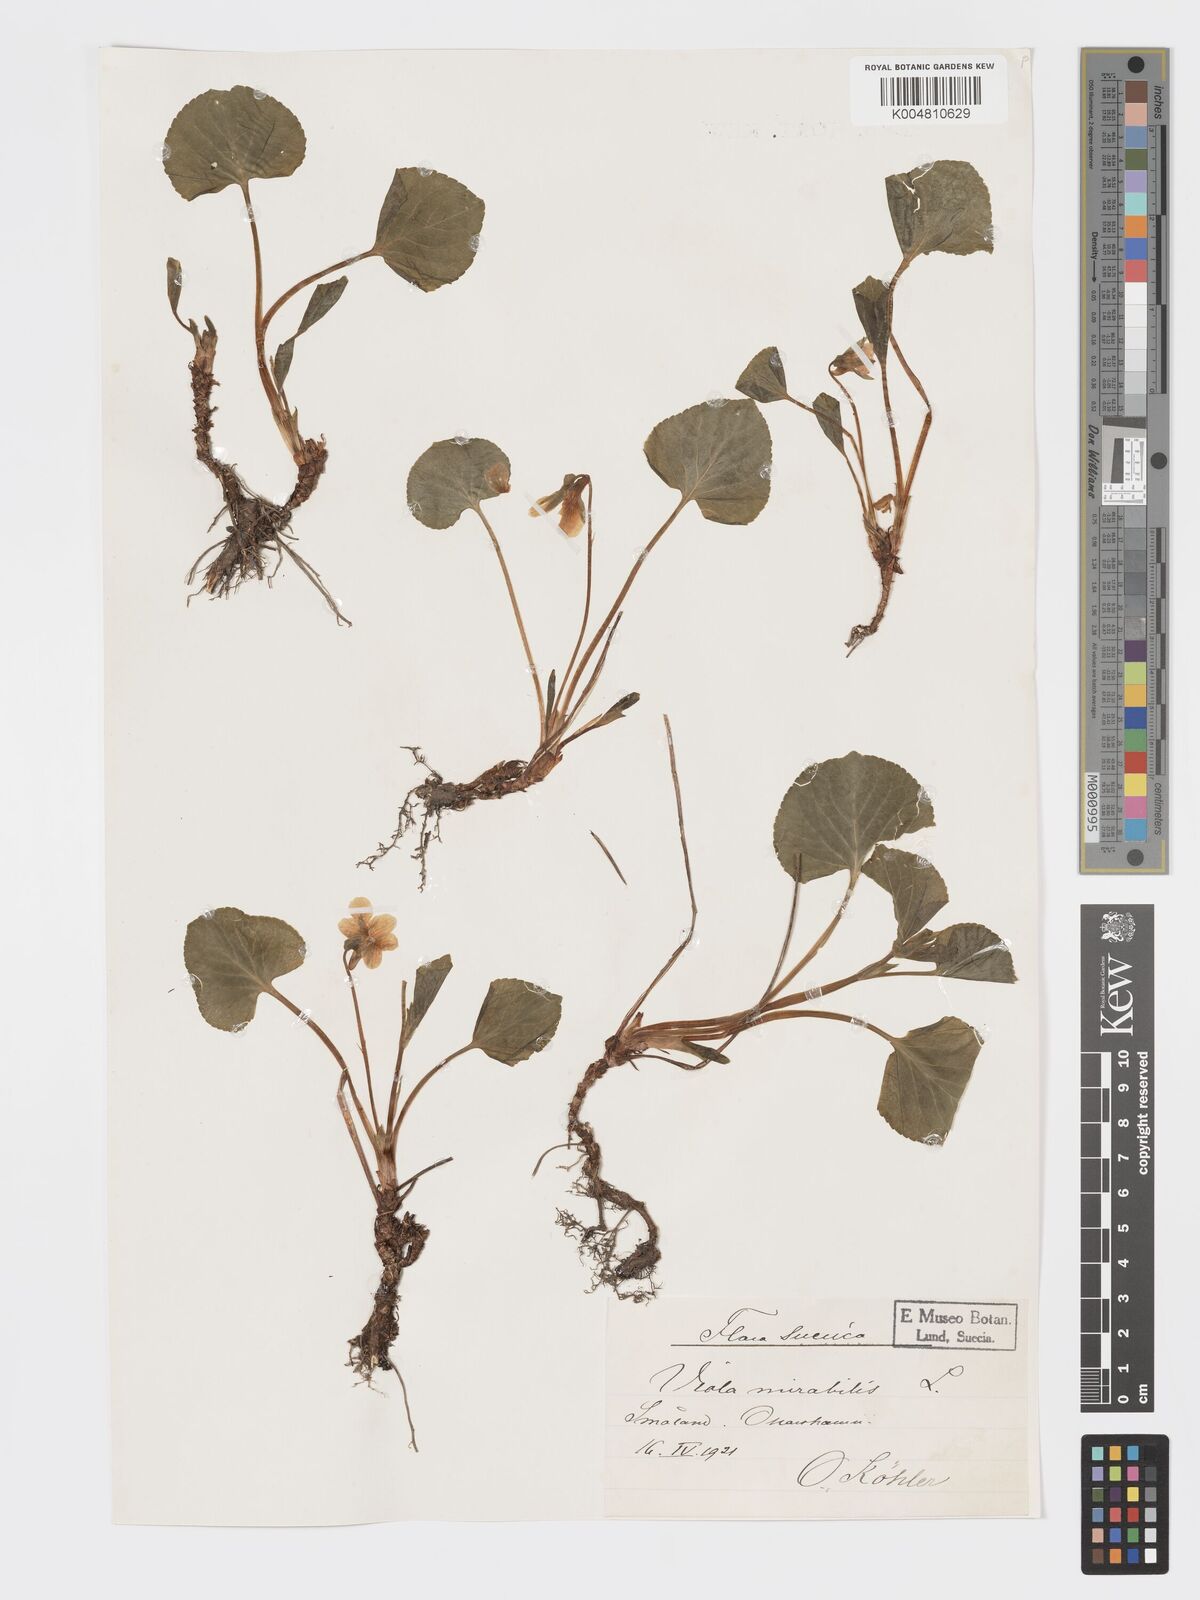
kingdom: Plantae
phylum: Tracheophyta
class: Magnoliopsida
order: Malpighiales
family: Violaceae
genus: Viola
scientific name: Viola mirabilis
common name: Wonder violet
